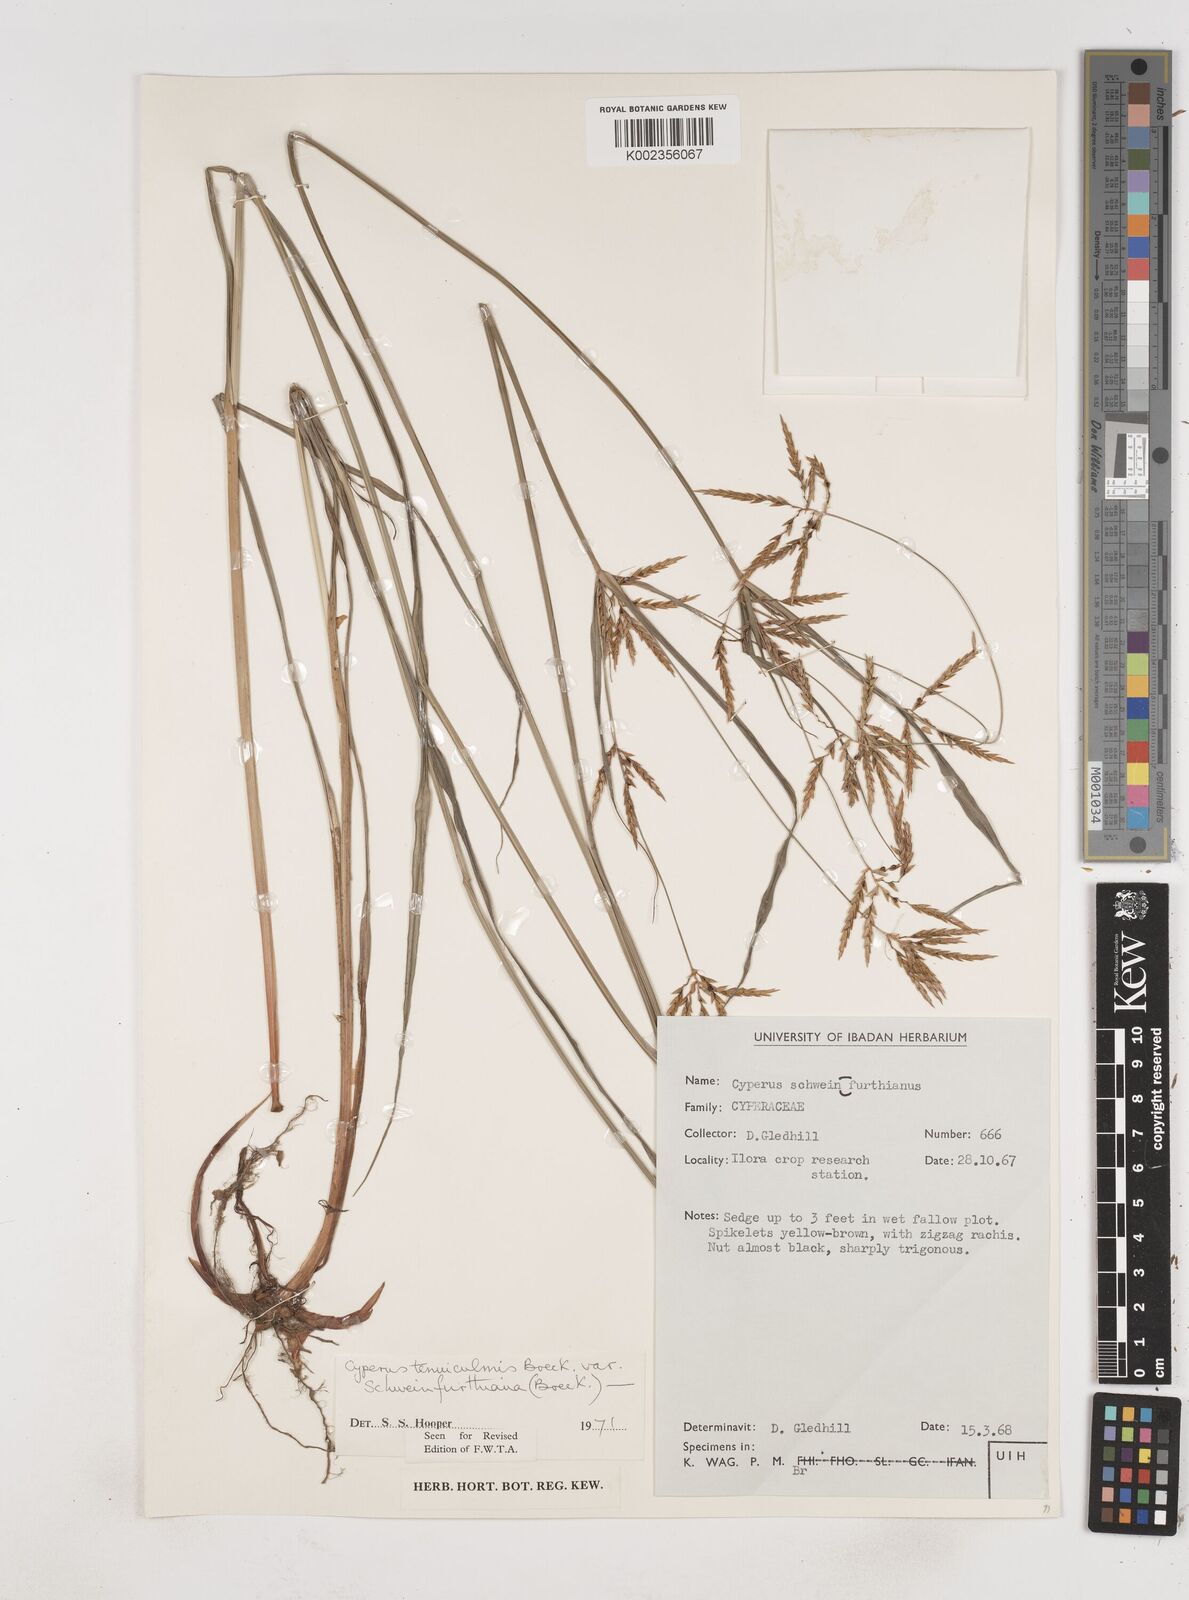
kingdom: Plantae
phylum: Tracheophyta
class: Liliopsida
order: Poales
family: Cyperaceae
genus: Cyperus
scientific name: Cyperus tenuiculmis
